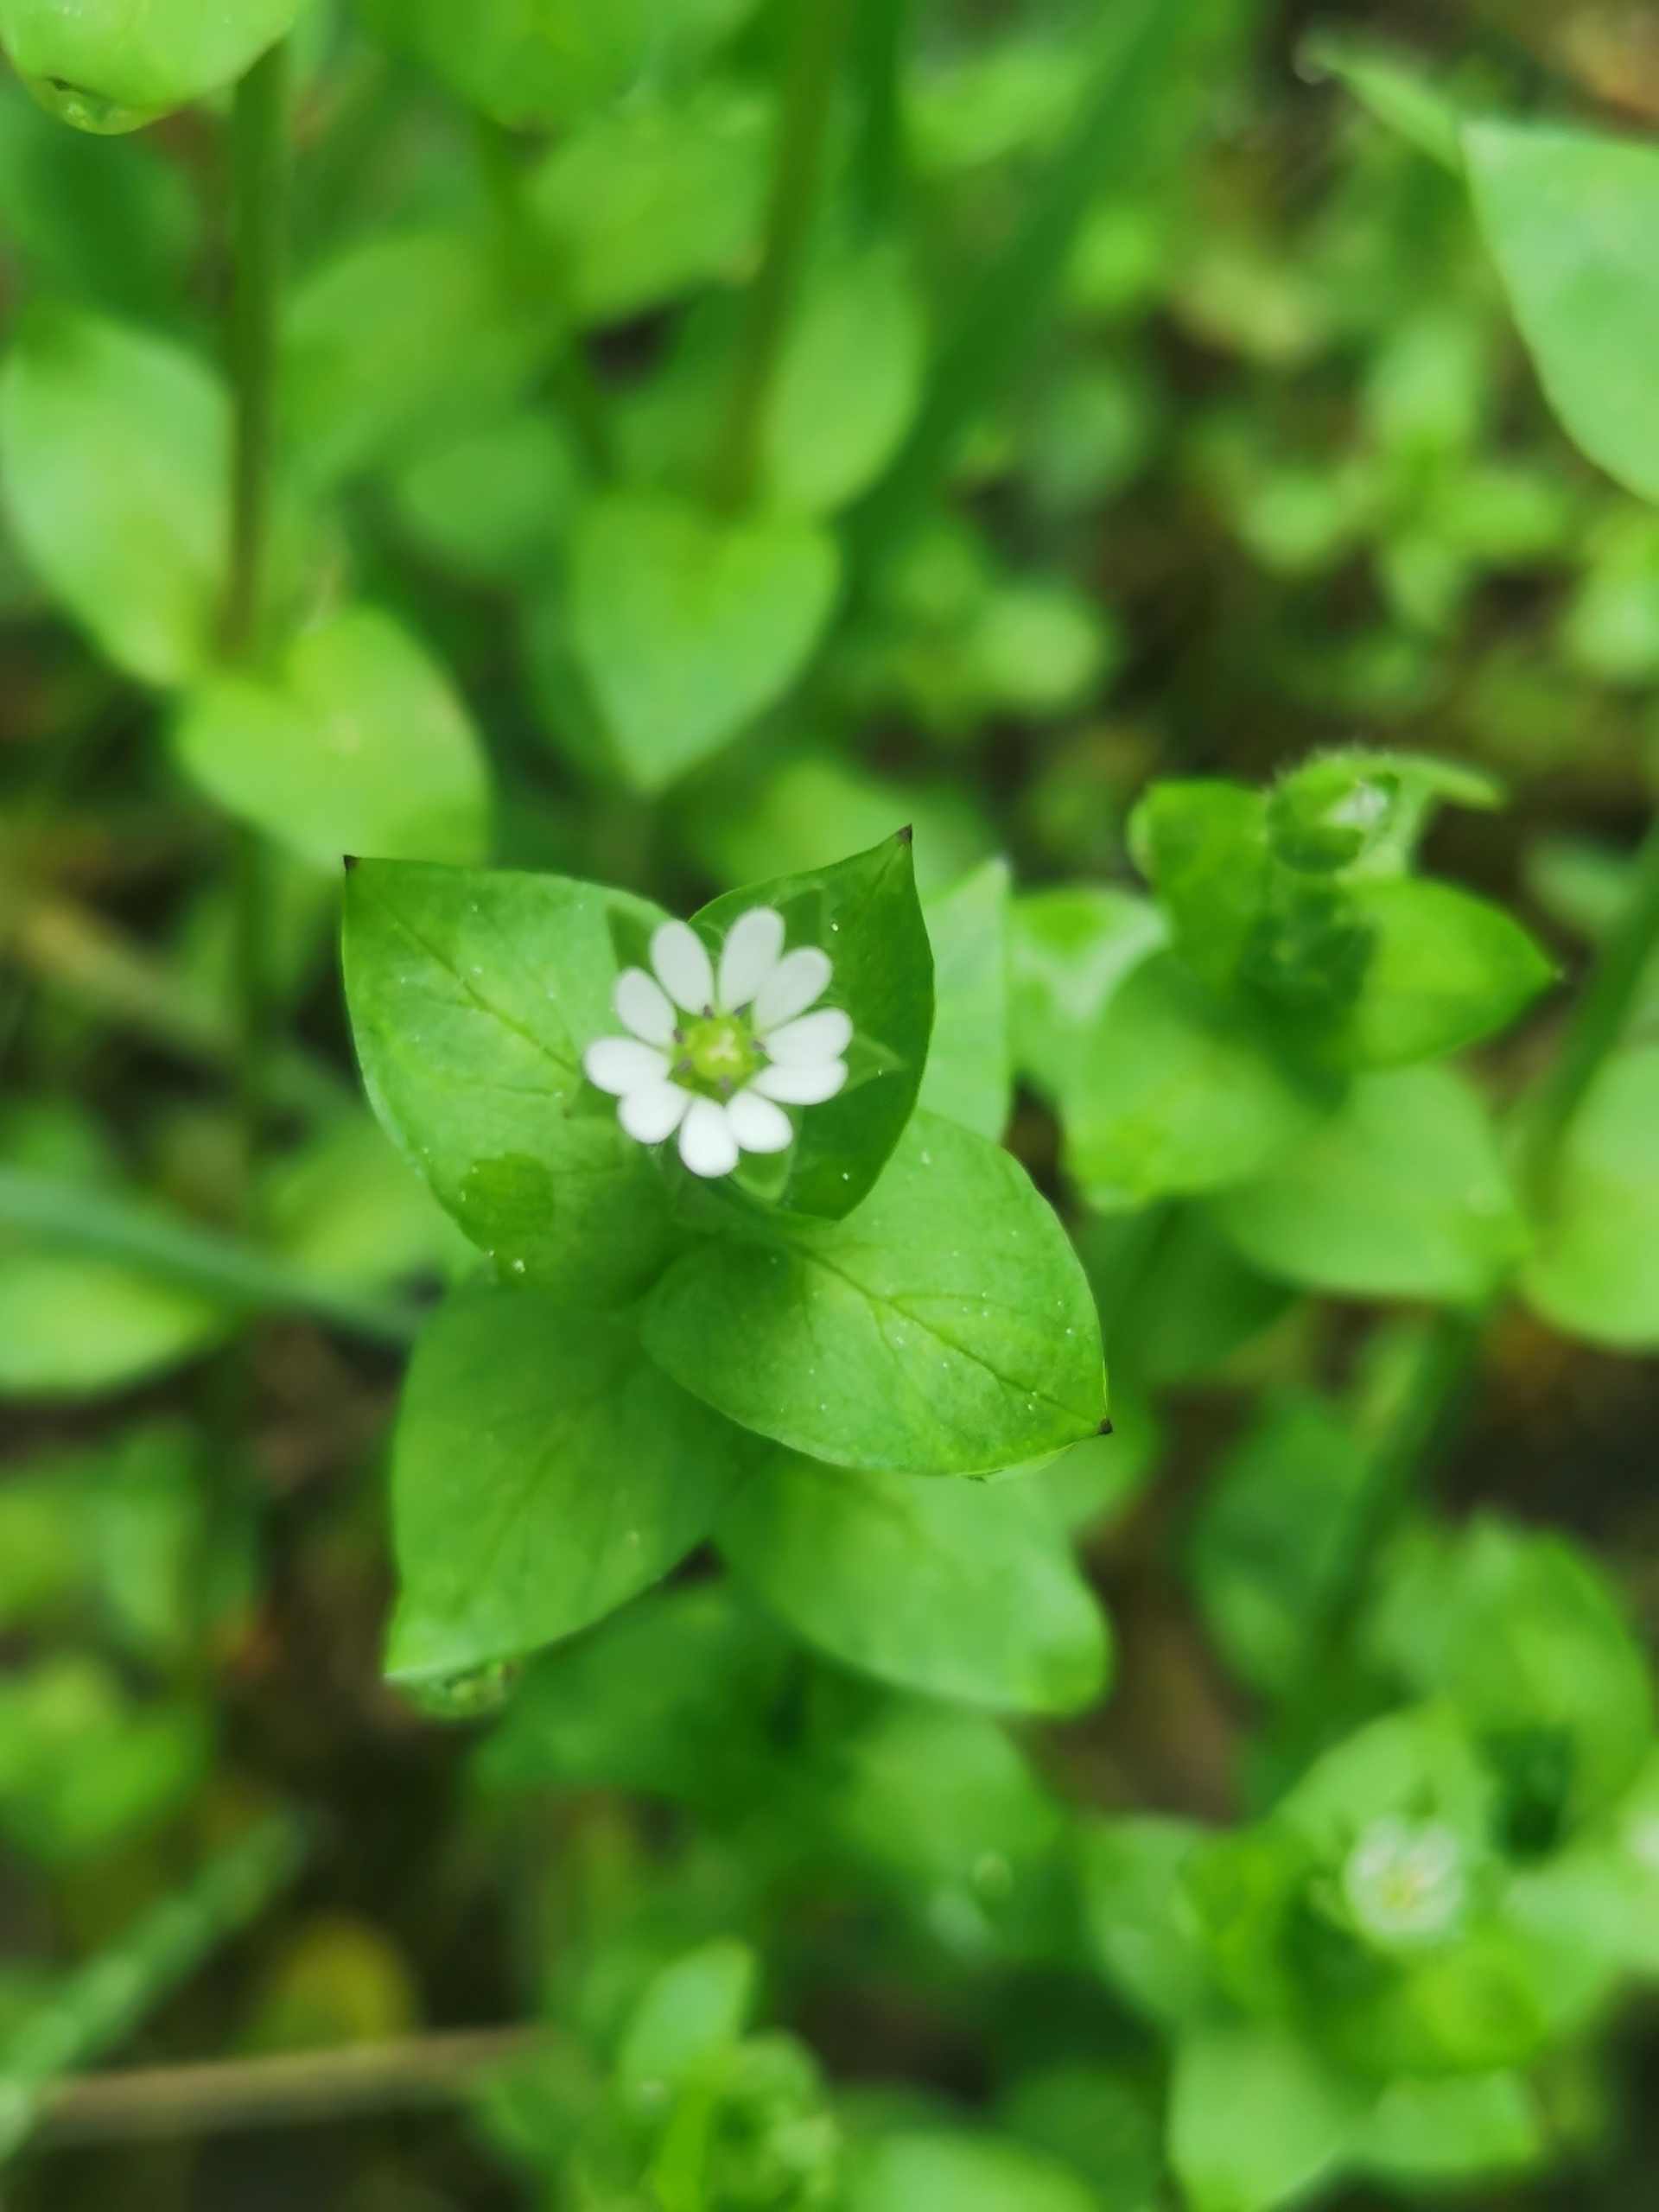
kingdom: Plantae
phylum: Tracheophyta
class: Magnoliopsida
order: Caryophyllales
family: Caryophyllaceae
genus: Stellaria
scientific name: Stellaria media
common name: Almindelig fuglegræs
